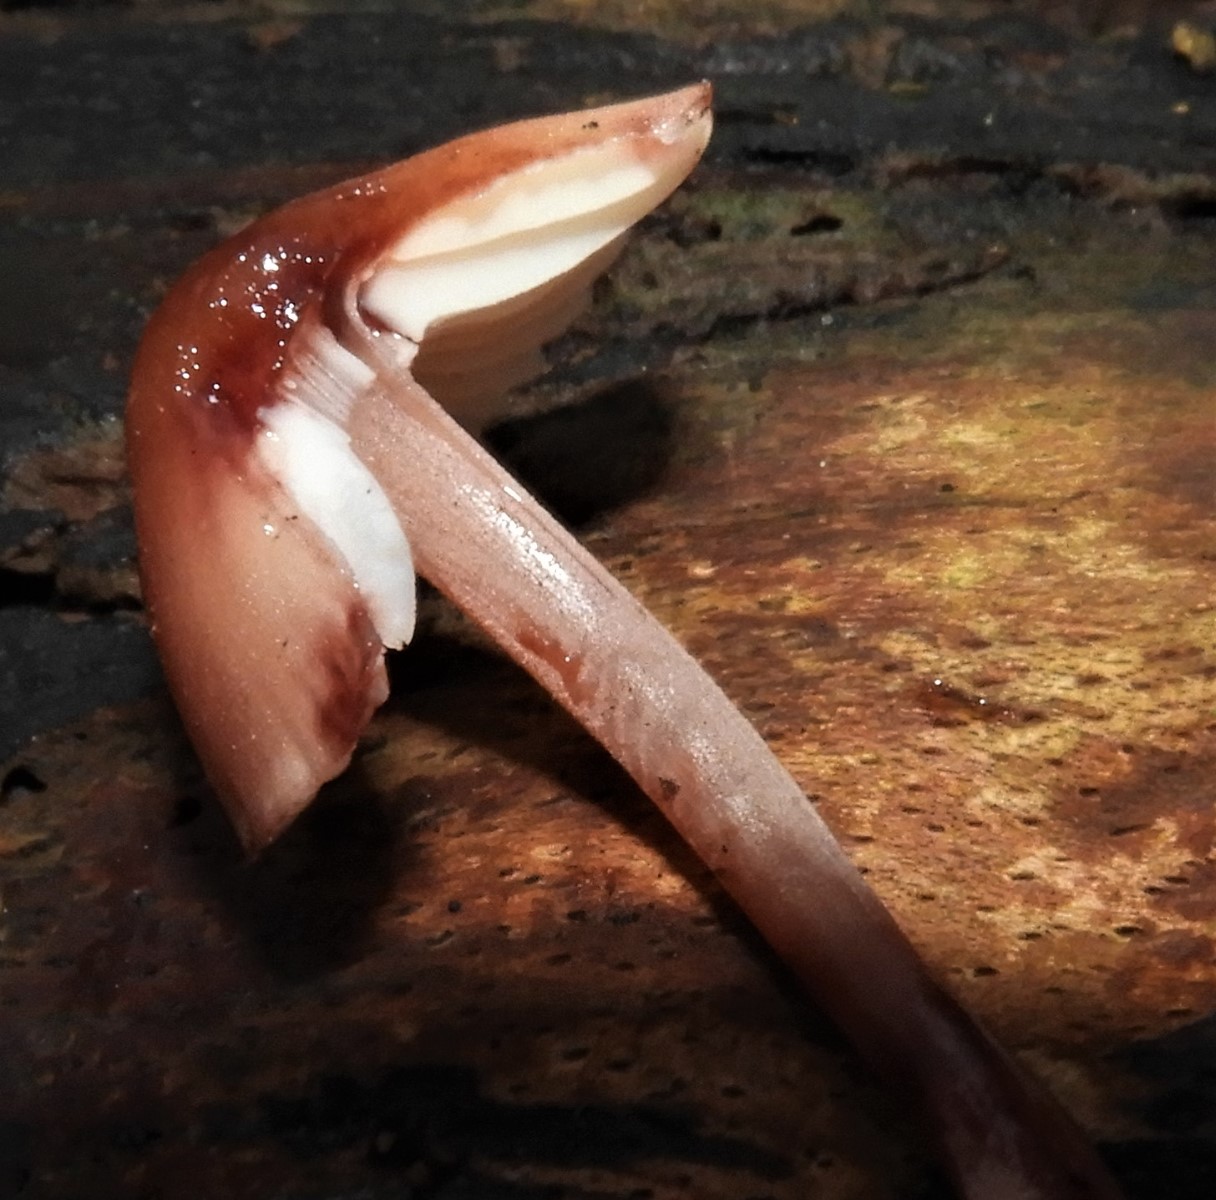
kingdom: Fungi
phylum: Basidiomycota
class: Agaricomycetes
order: Agaricales
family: Mycenaceae
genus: Mycena
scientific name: Mycena haematopus
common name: blødende huesvamp
